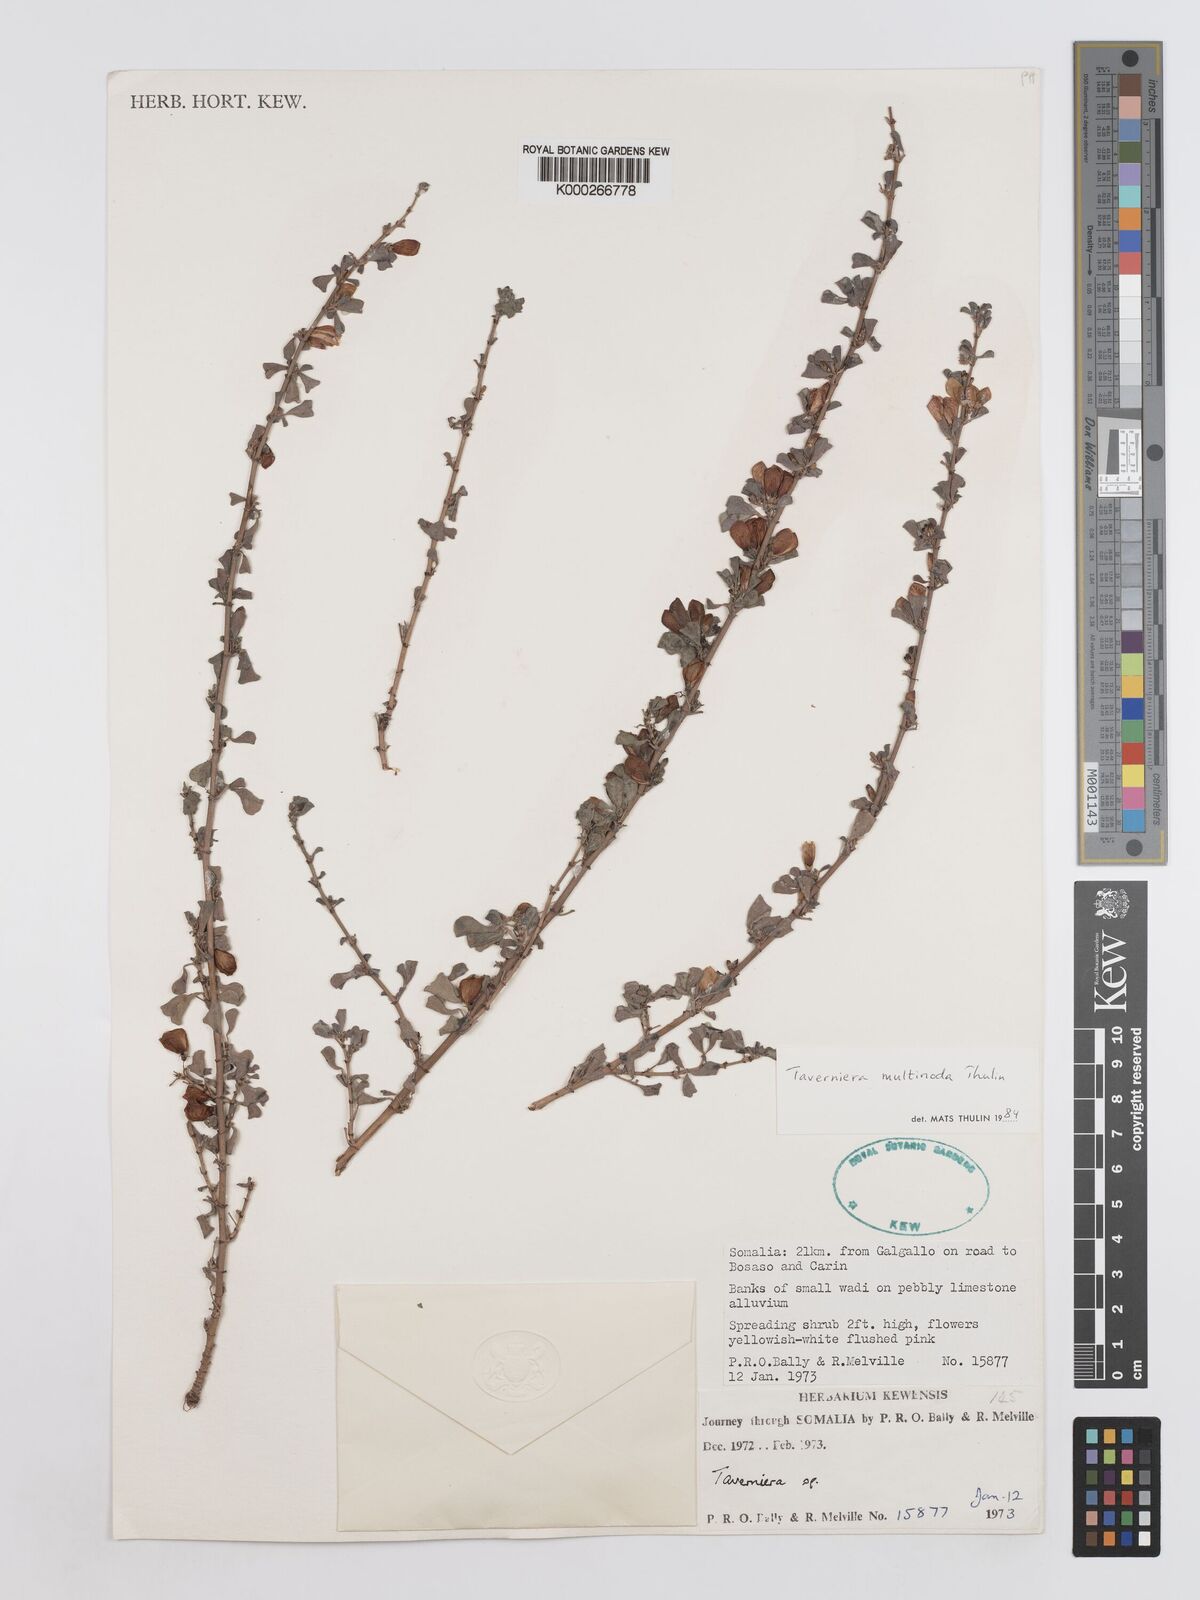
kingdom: Plantae
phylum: Tracheophyta
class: Magnoliopsida
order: Fabales
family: Fabaceae
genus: Taverniera
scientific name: Taverniera multinoda
